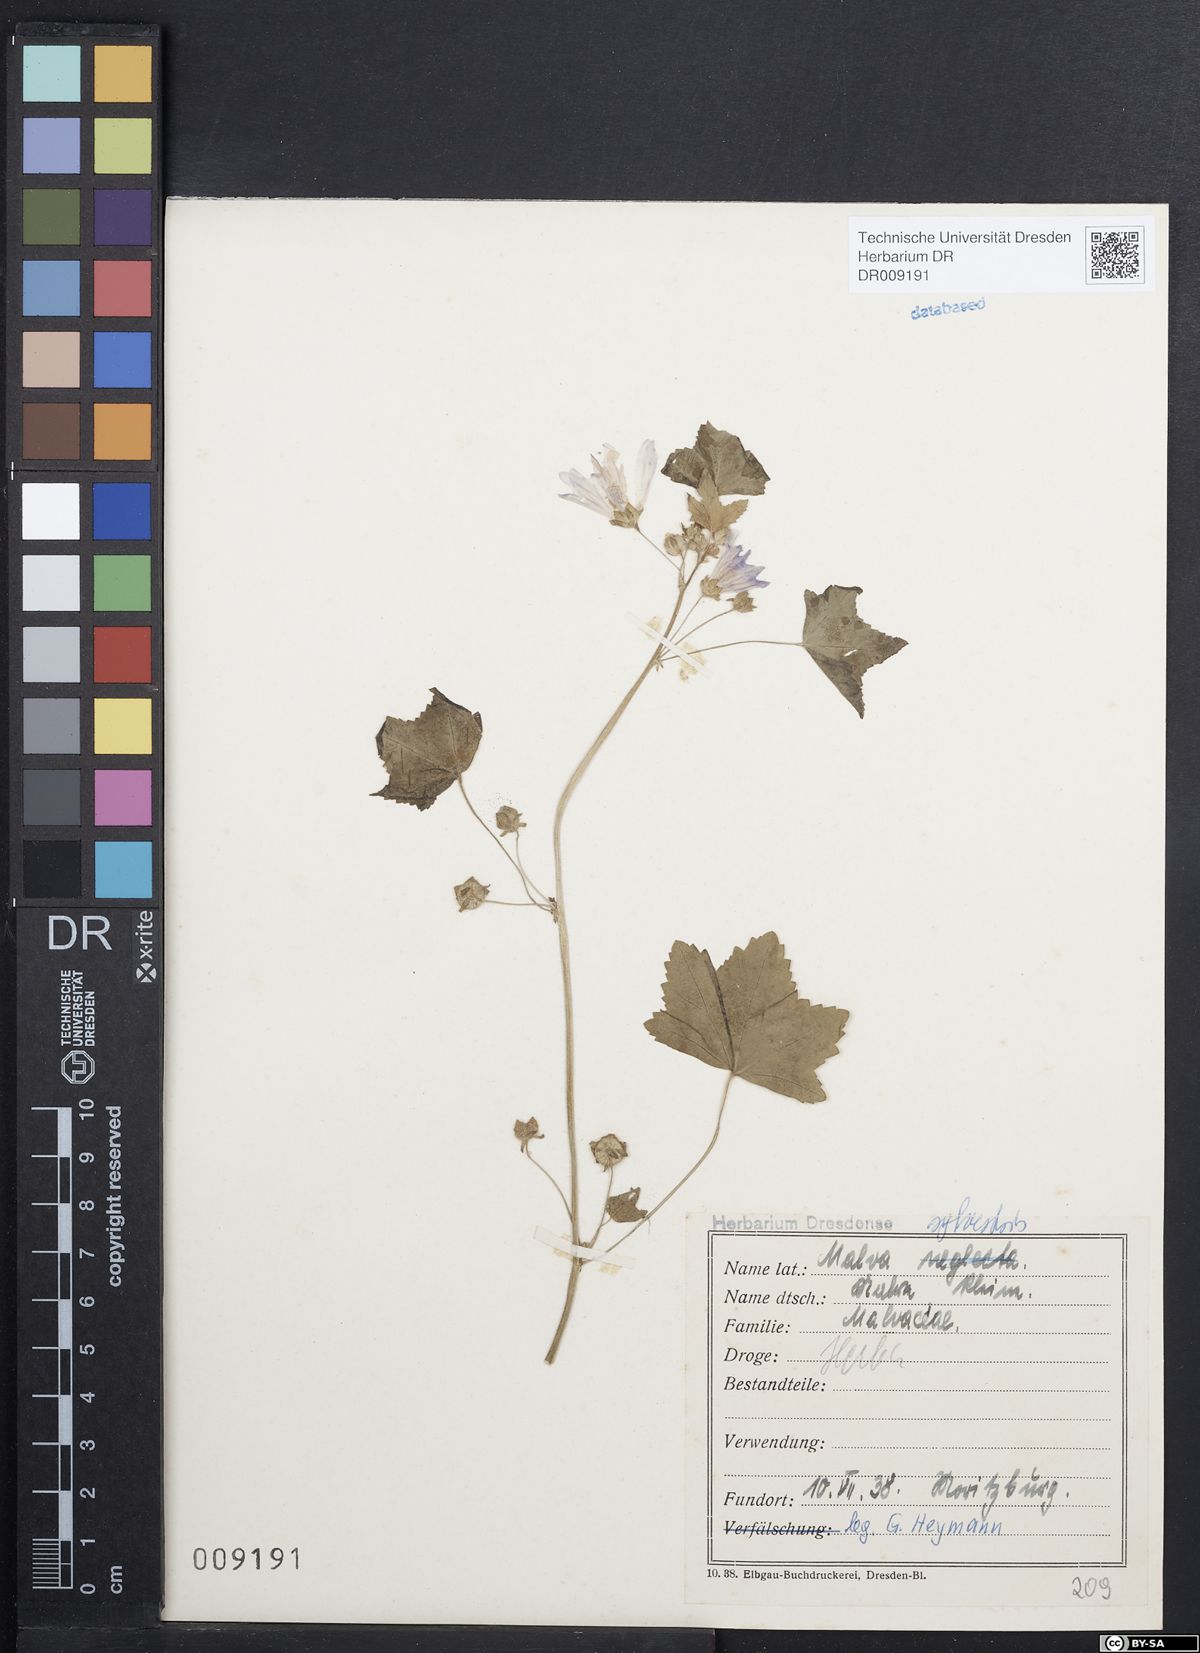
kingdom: Plantae
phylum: Tracheophyta
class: Magnoliopsida
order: Malvales
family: Malvaceae
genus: Malva
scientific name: Malva sylvestris
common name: Common mallow
